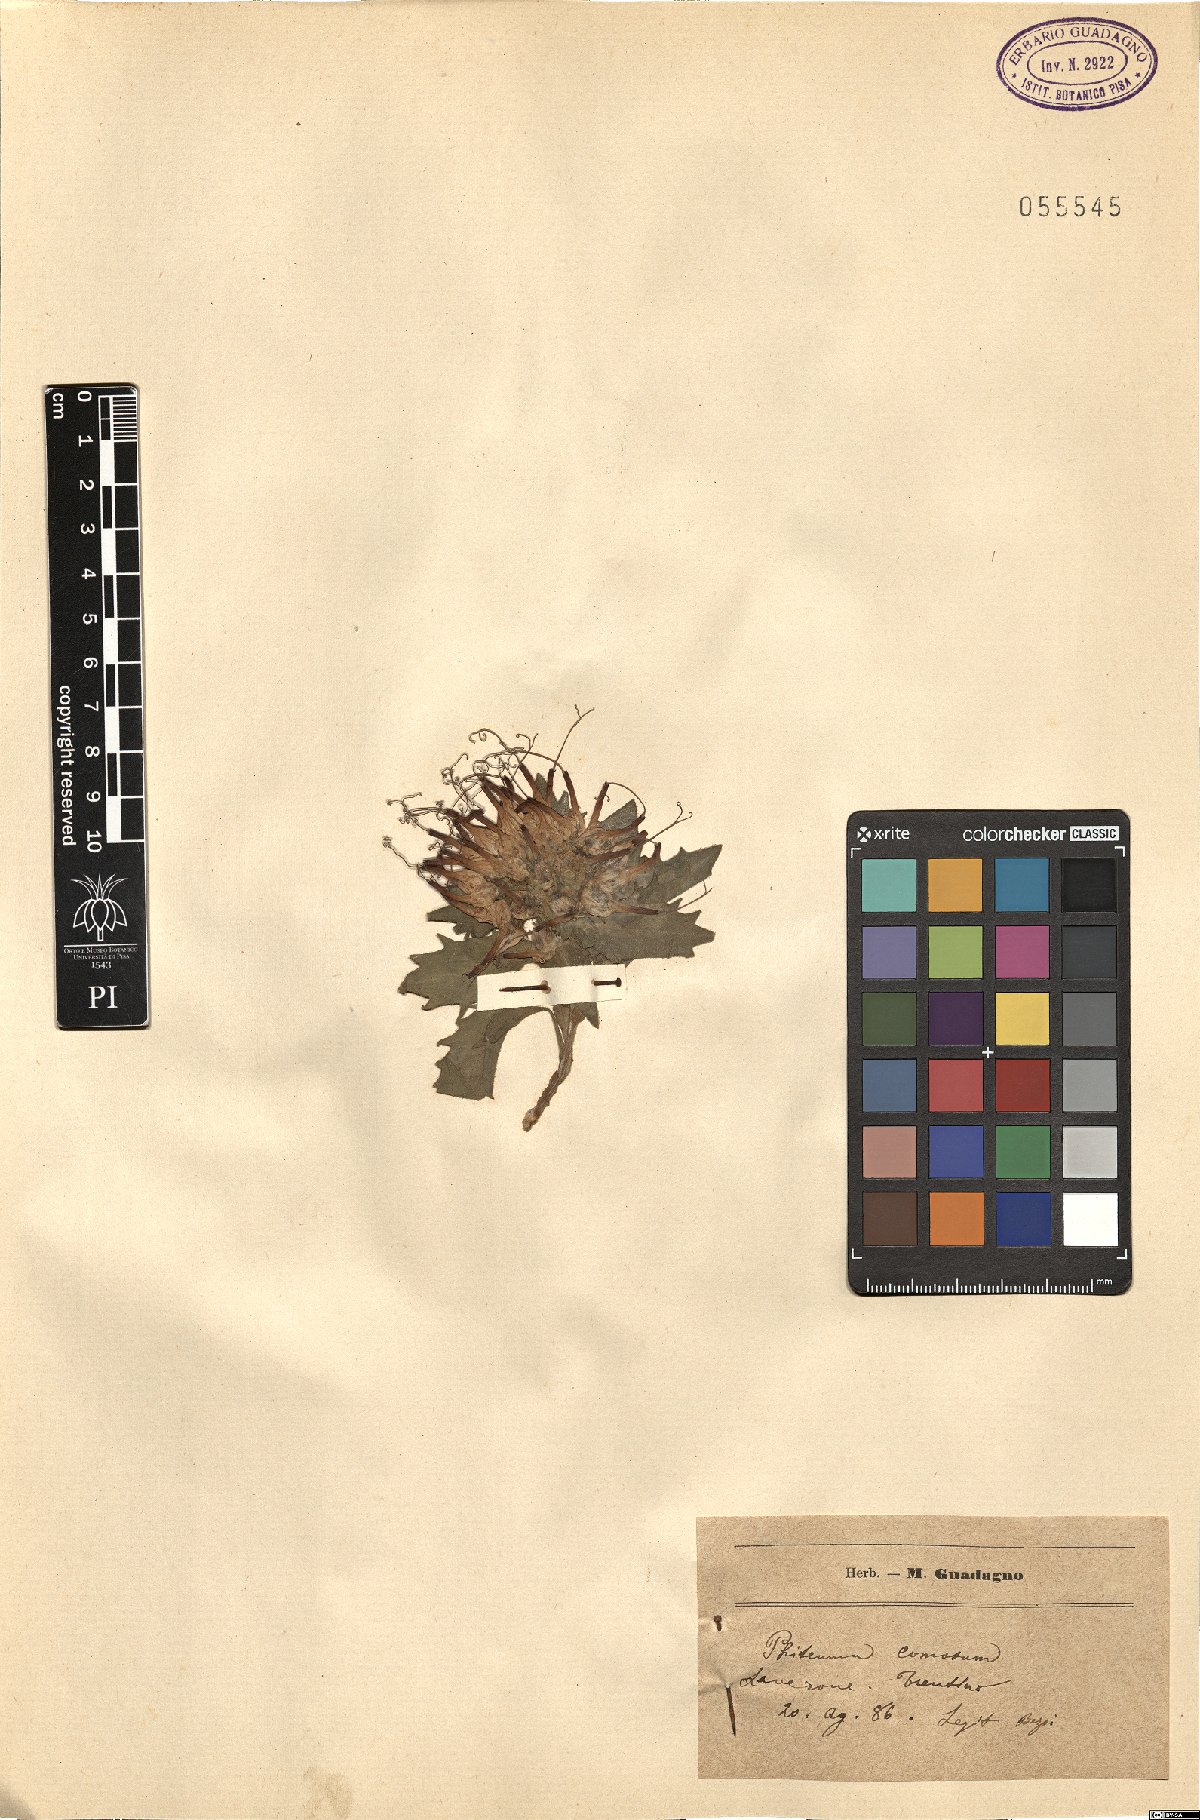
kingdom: Plantae
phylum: Tracheophyta
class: Magnoliopsida
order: Asterales
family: Campanulaceae
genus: Physoplexis
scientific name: Physoplexis comosa
